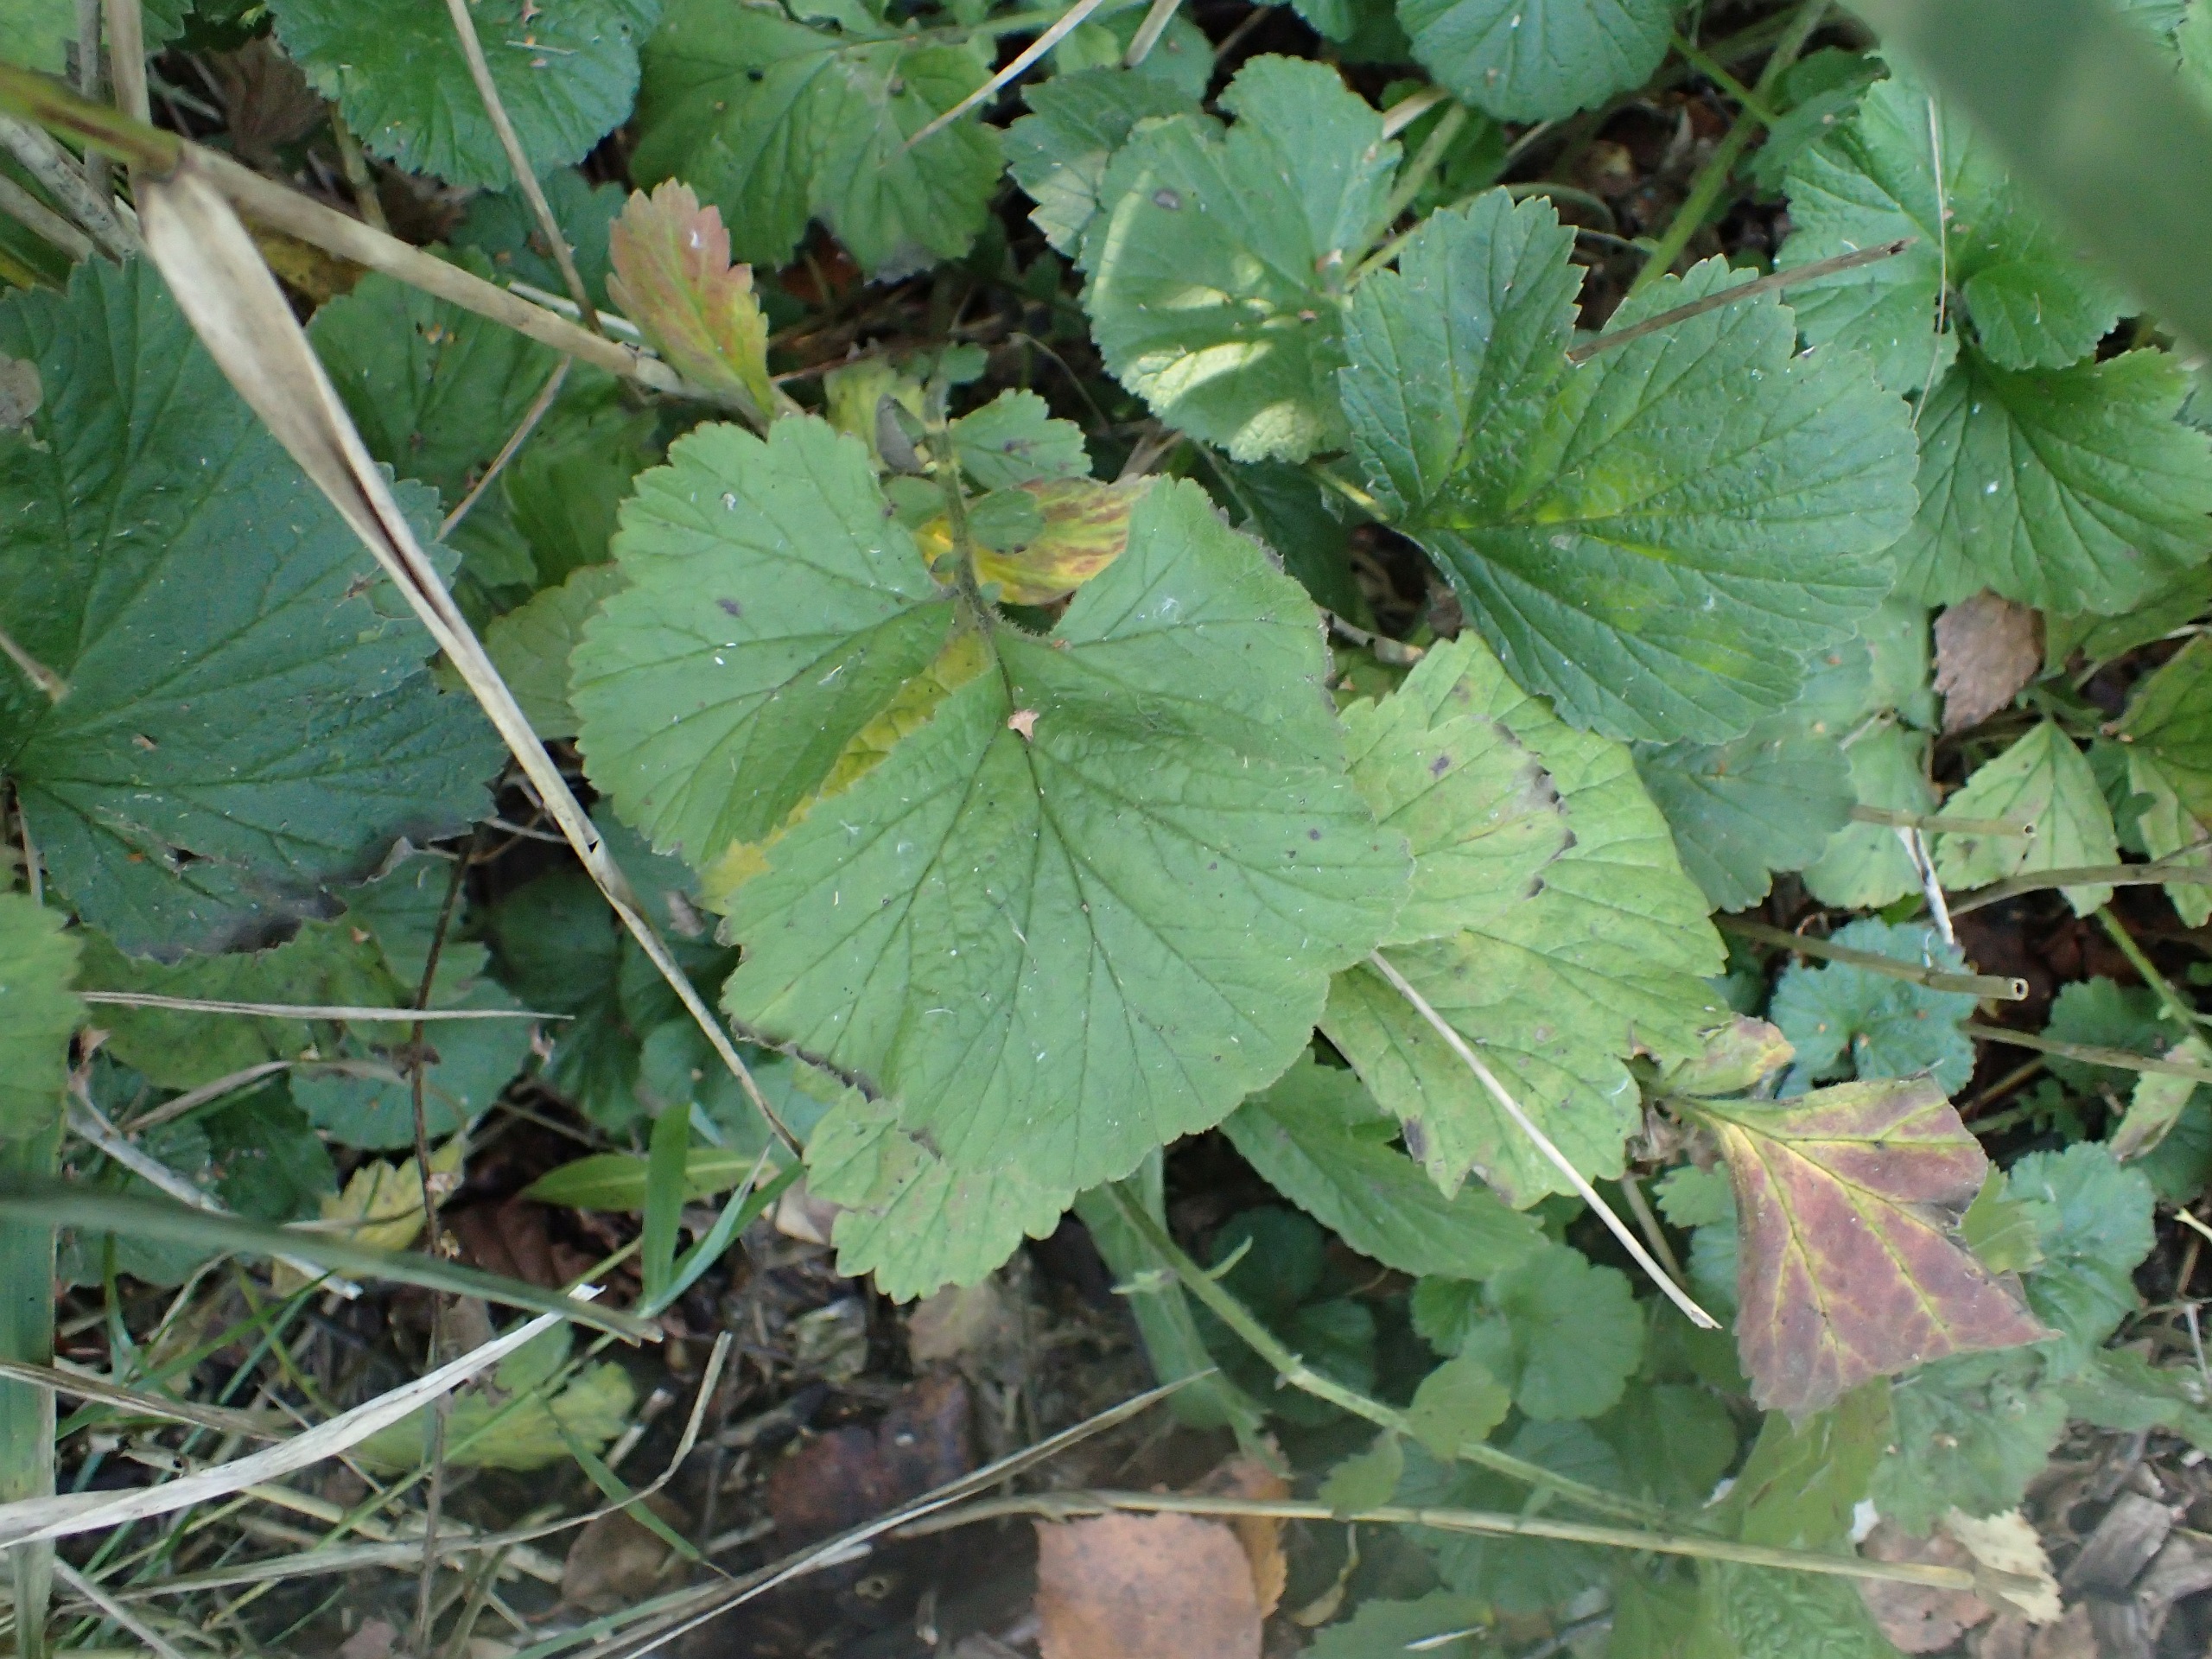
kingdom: Plantae
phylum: Tracheophyta
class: Magnoliopsida
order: Rosales
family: Rosaceae
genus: Geum
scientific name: Geum rivale
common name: Eng-nellikerod
